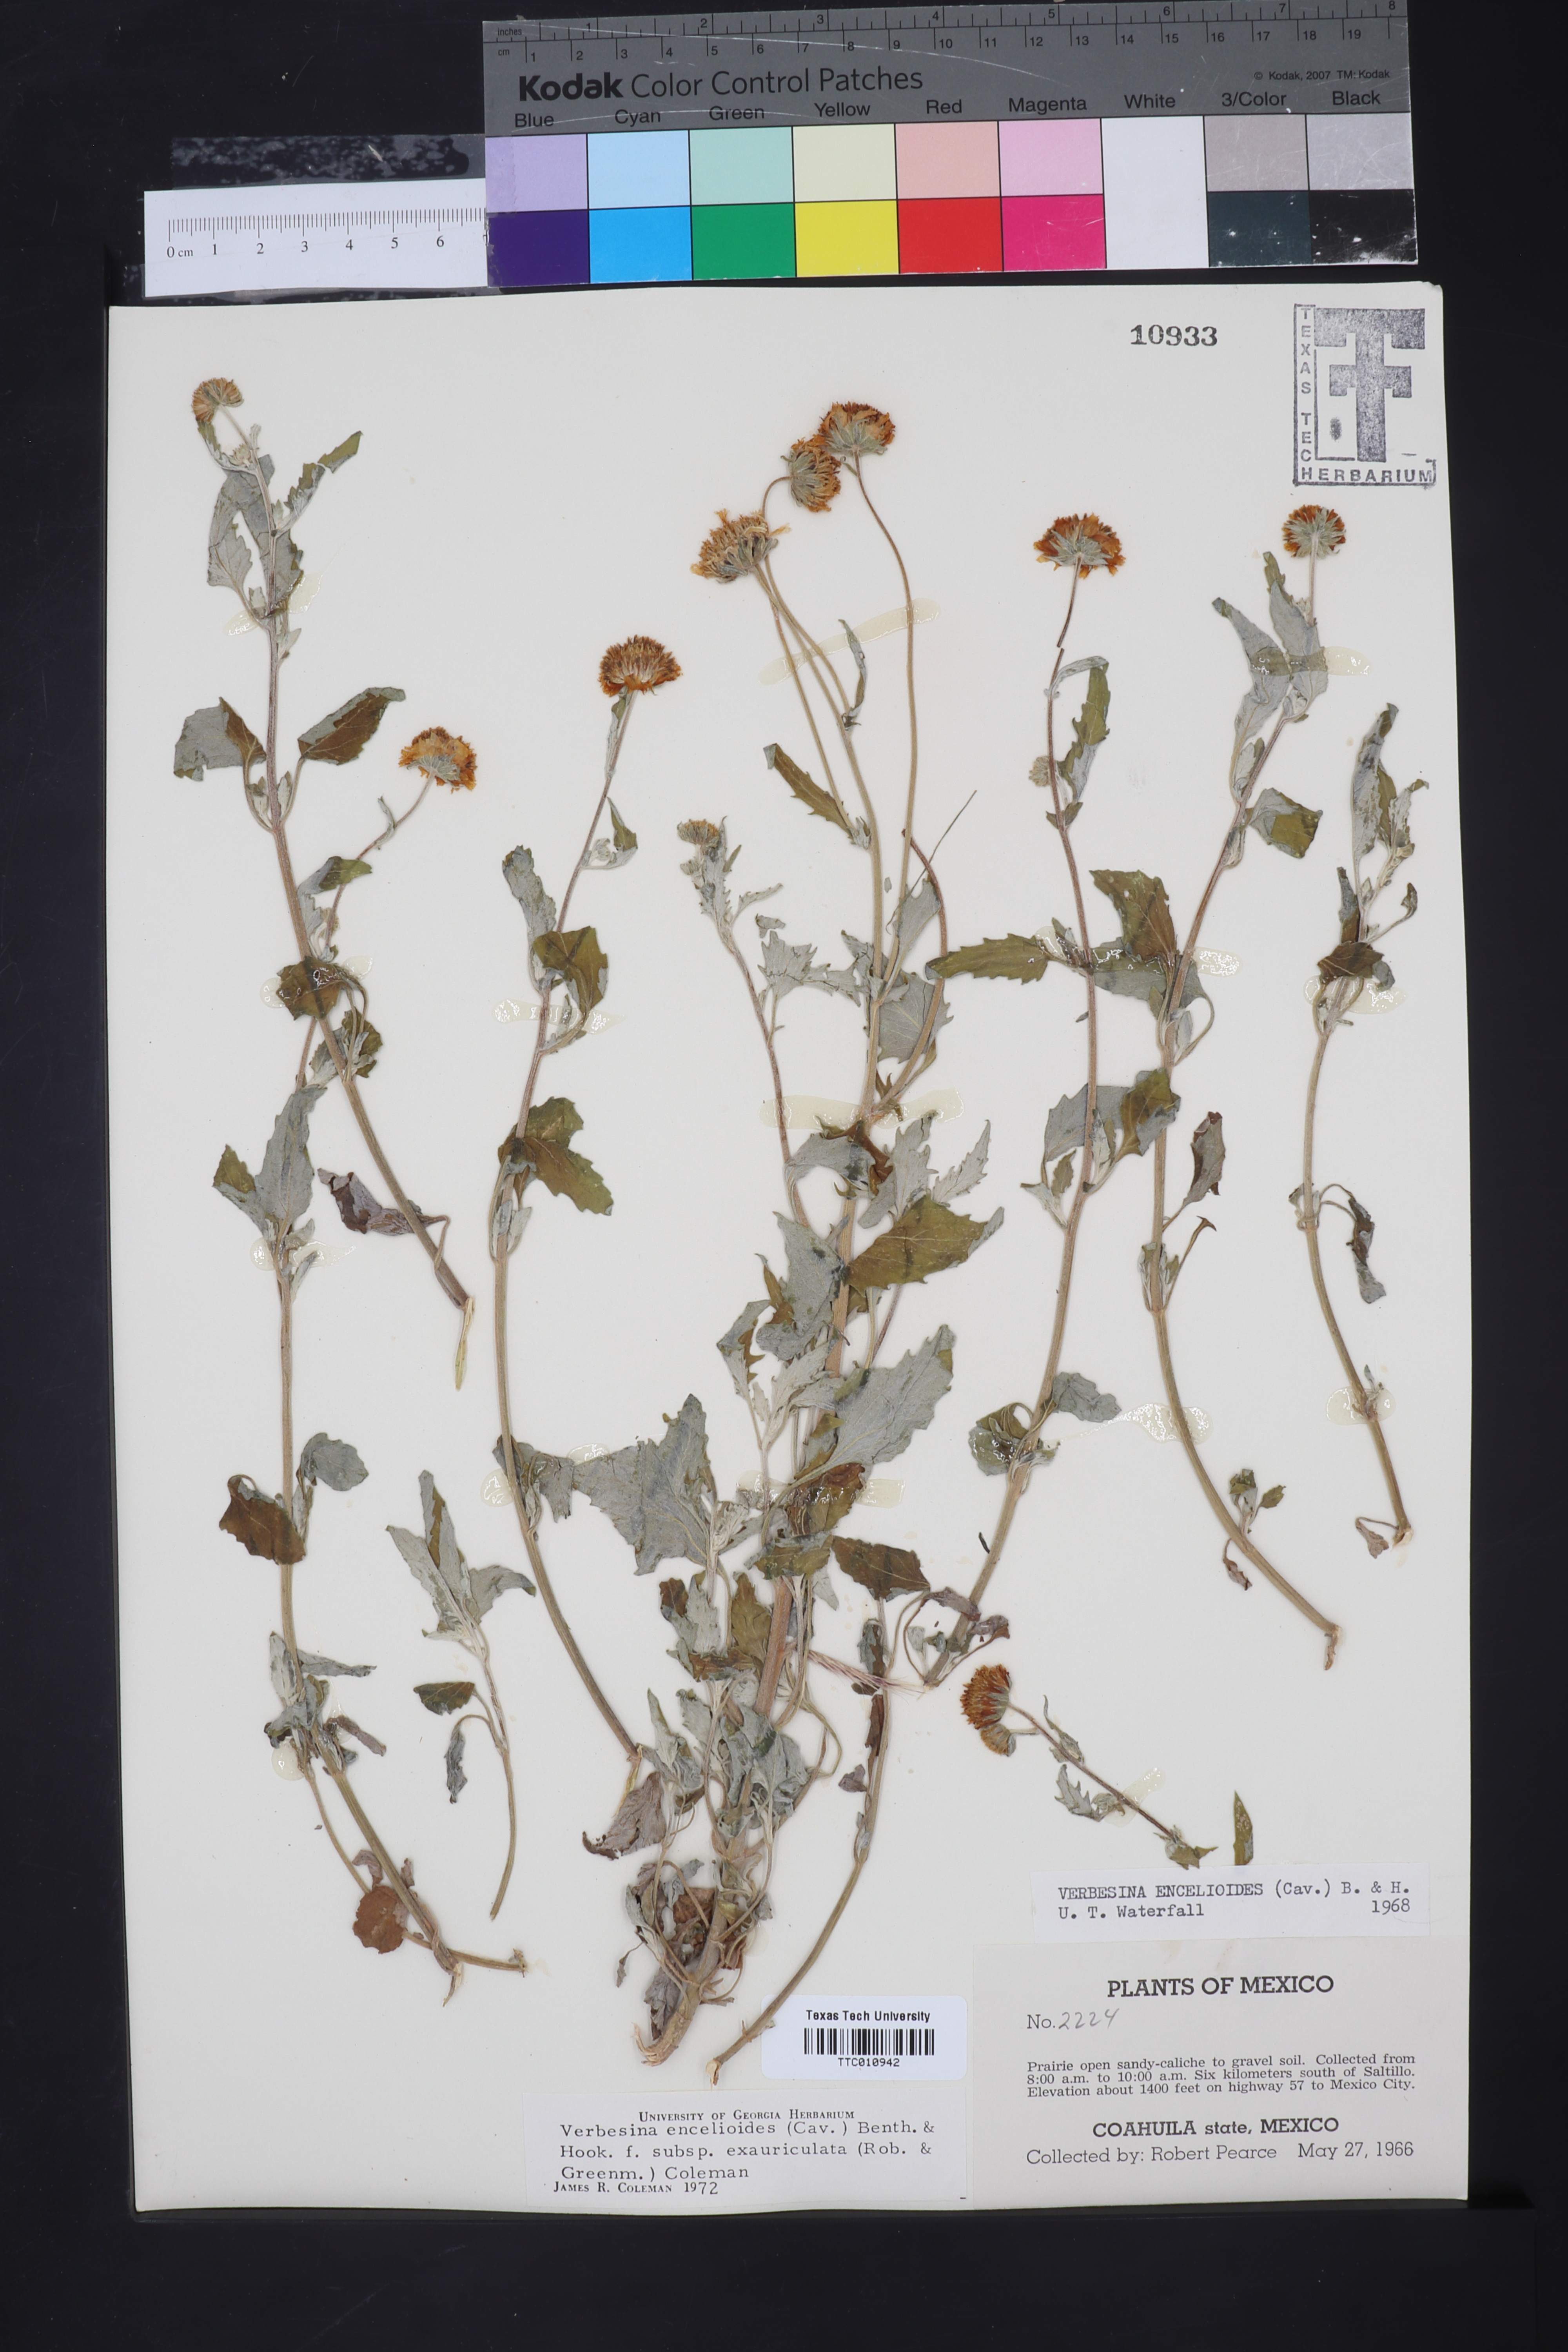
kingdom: Plantae
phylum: Tracheophyta
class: Magnoliopsida
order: Asterales
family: Asteraceae
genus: Verbesina
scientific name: Verbesina encelioides
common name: Golden crownbeard
